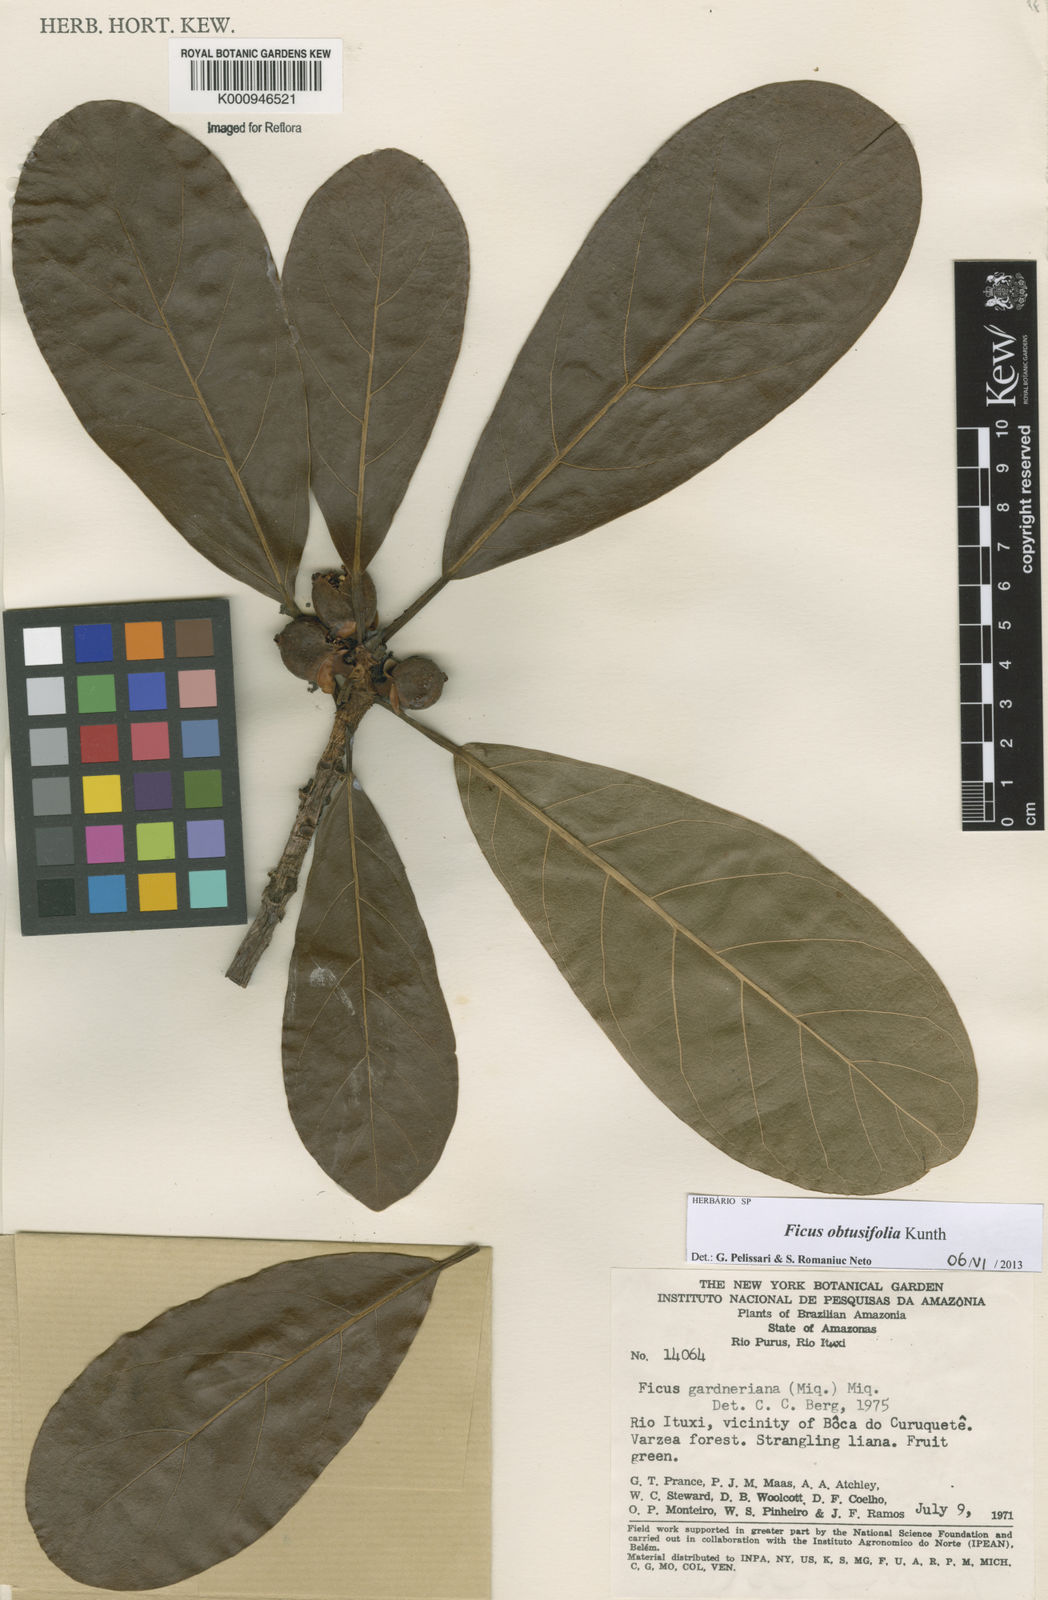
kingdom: Plantae
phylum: Tracheophyta
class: Magnoliopsida
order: Rosales
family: Moraceae
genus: Ficus
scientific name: Ficus obtusifolia
